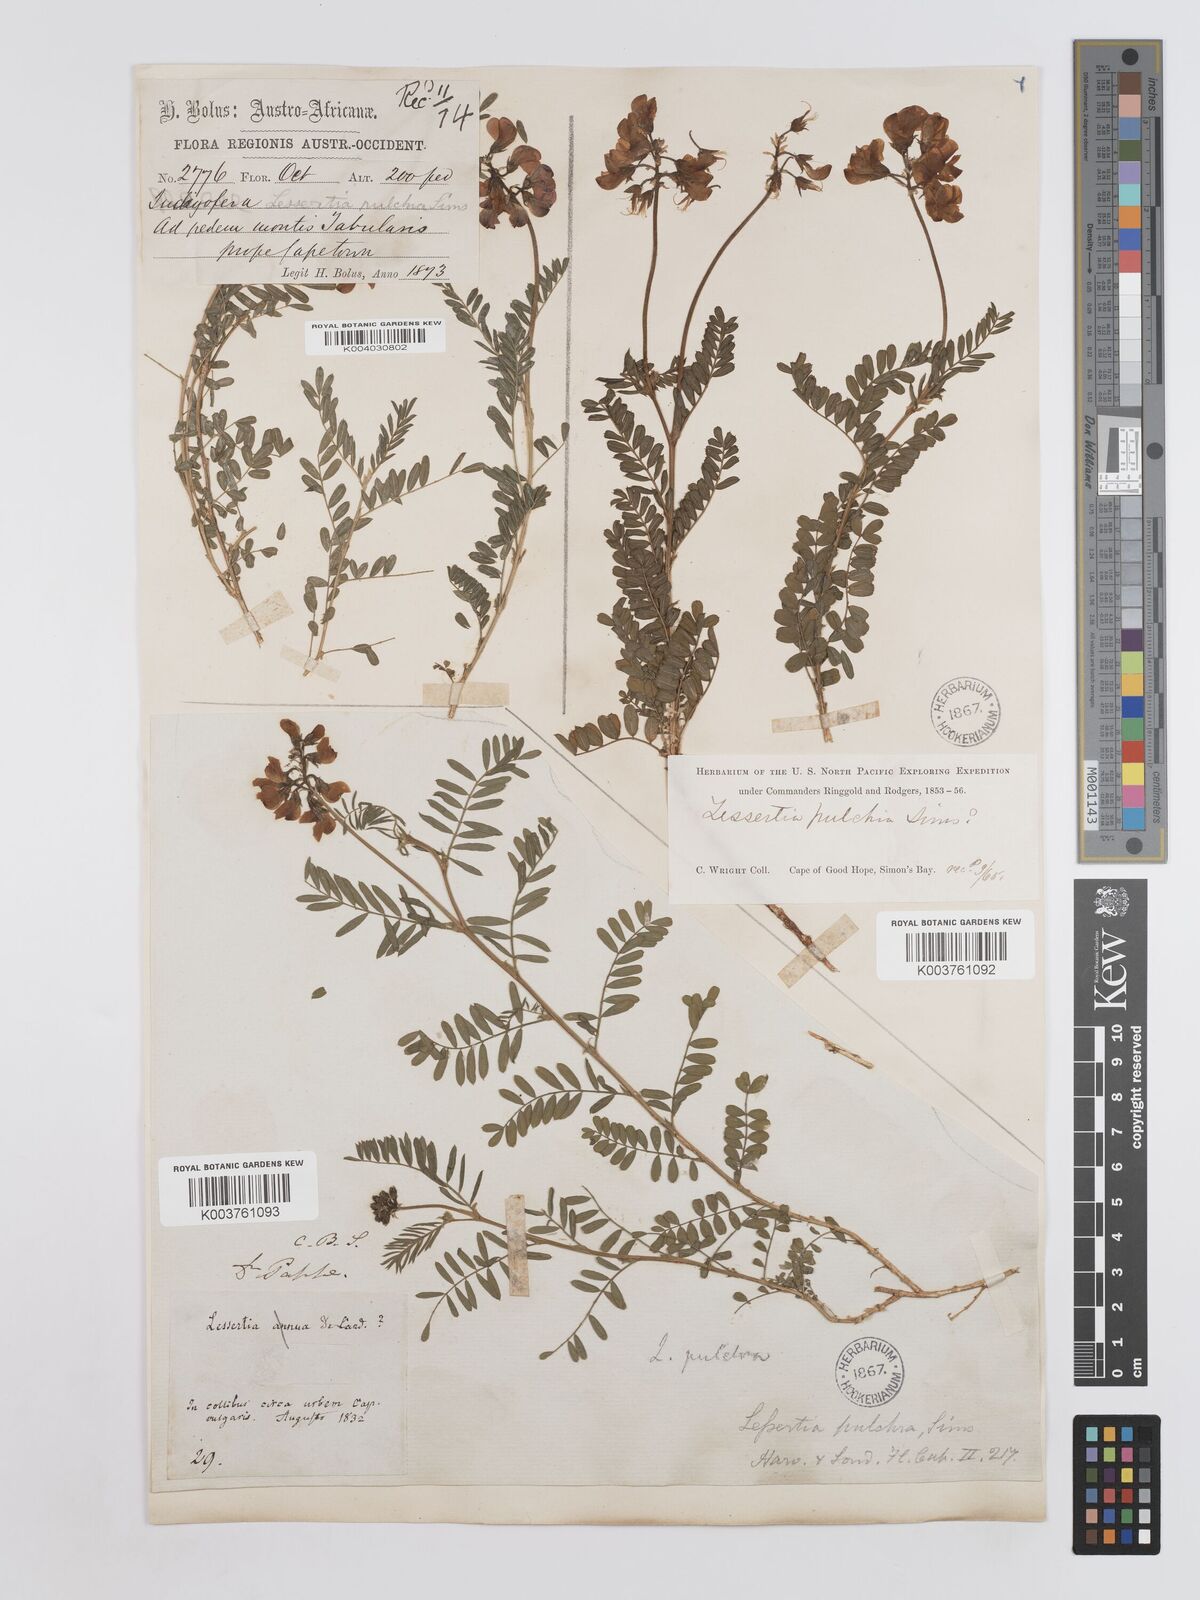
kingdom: Plantae
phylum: Tracheophyta
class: Magnoliopsida
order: Fabales
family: Fabaceae
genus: Lessertia
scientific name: Lessertia capensis
